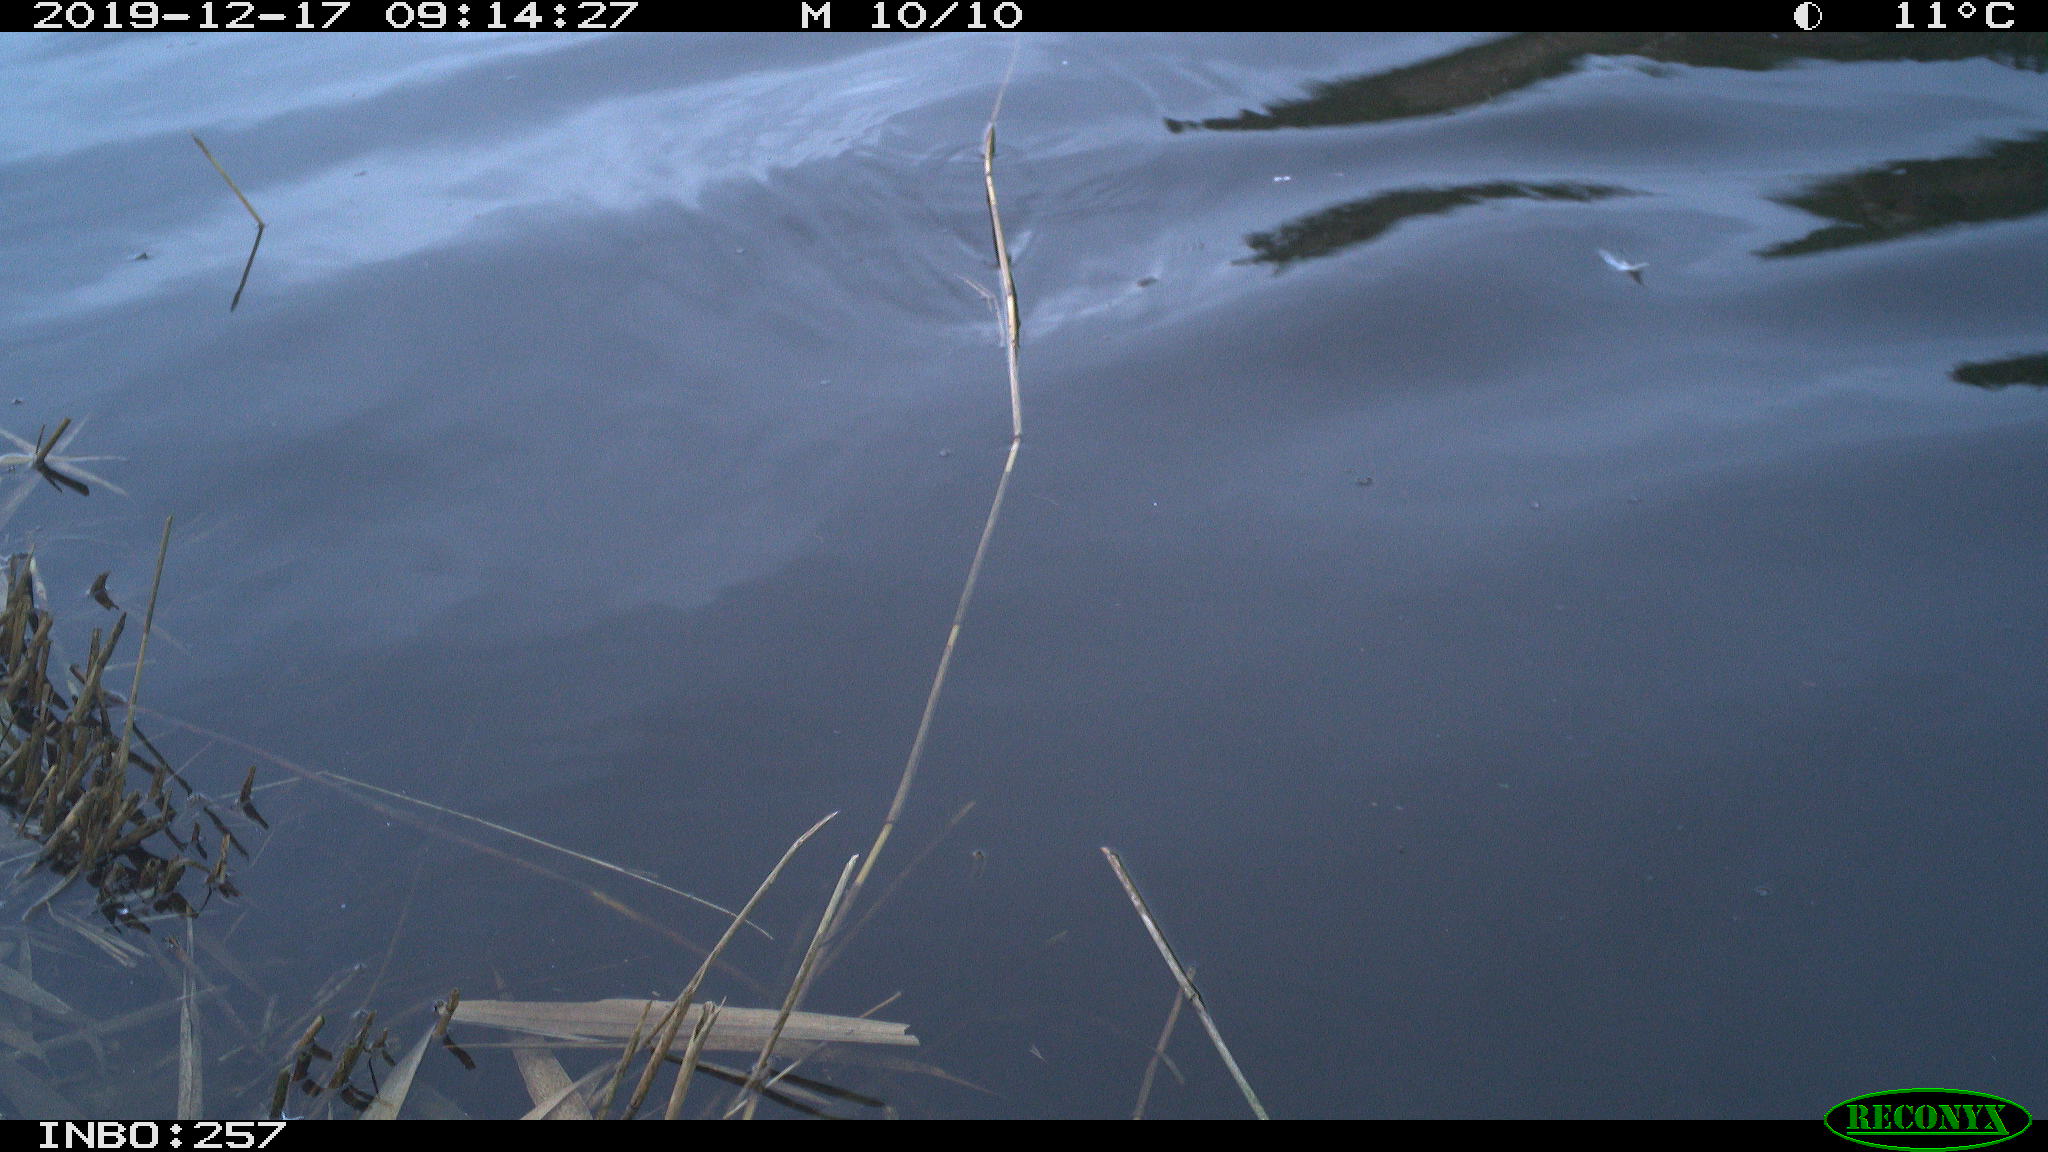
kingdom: Animalia
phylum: Chordata
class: Aves
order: Gruiformes
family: Rallidae
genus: Gallinula
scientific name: Gallinula chloropus
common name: Common moorhen
